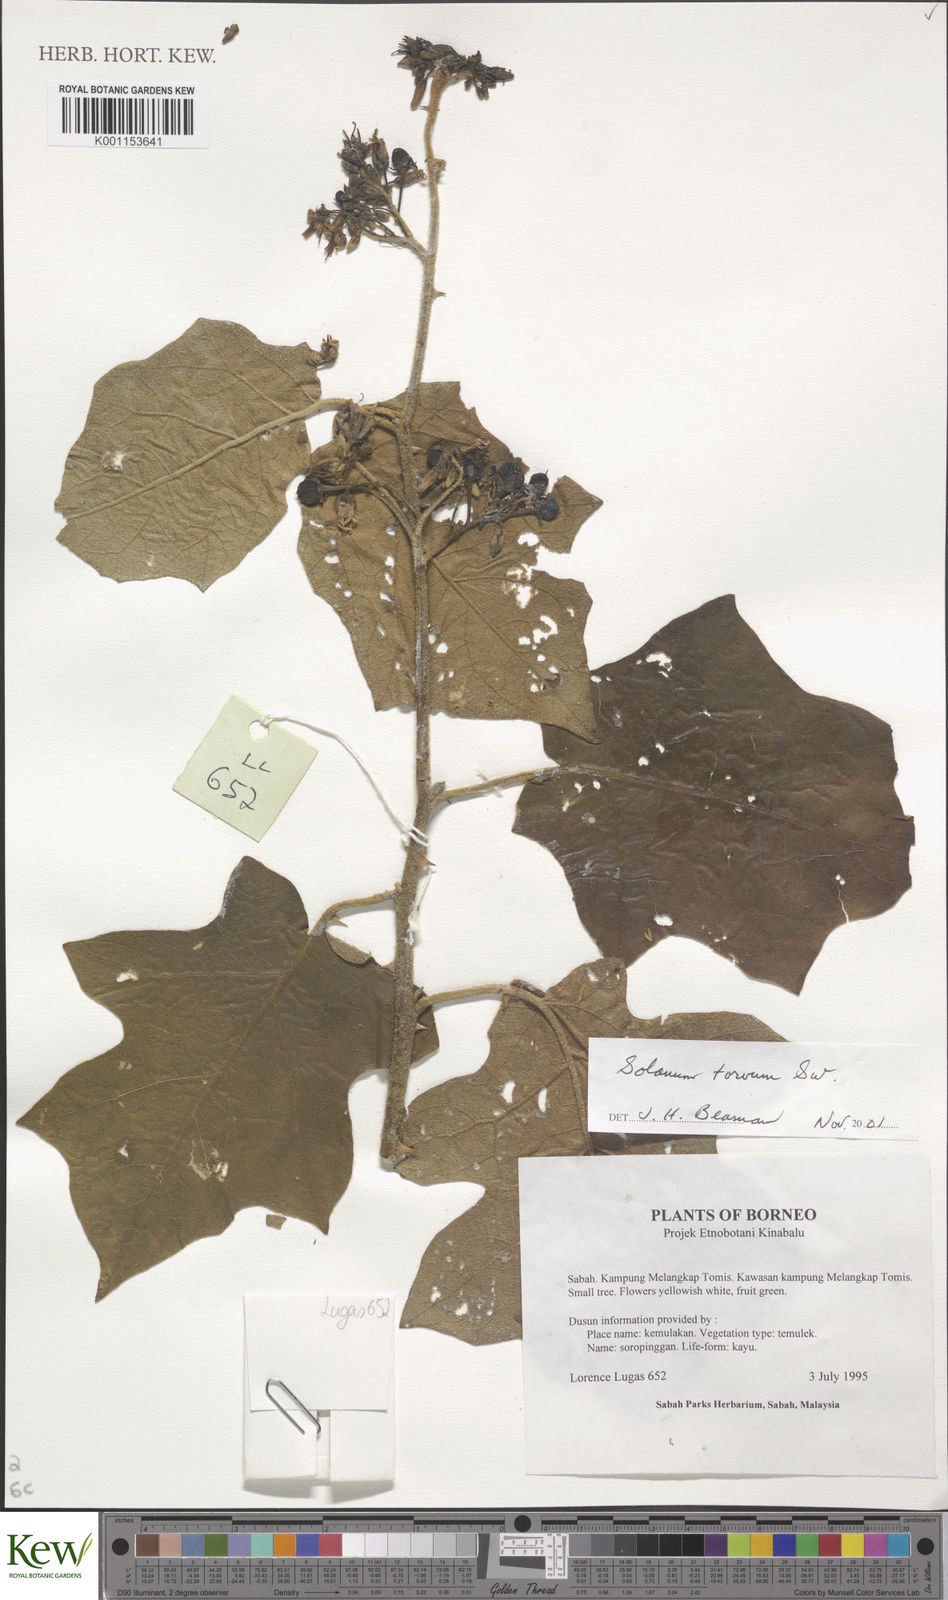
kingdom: Plantae
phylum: Tracheophyta
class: Magnoliopsida
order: Solanales
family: Solanaceae
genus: Solanum
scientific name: Solanum torvum
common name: Turkey berry
